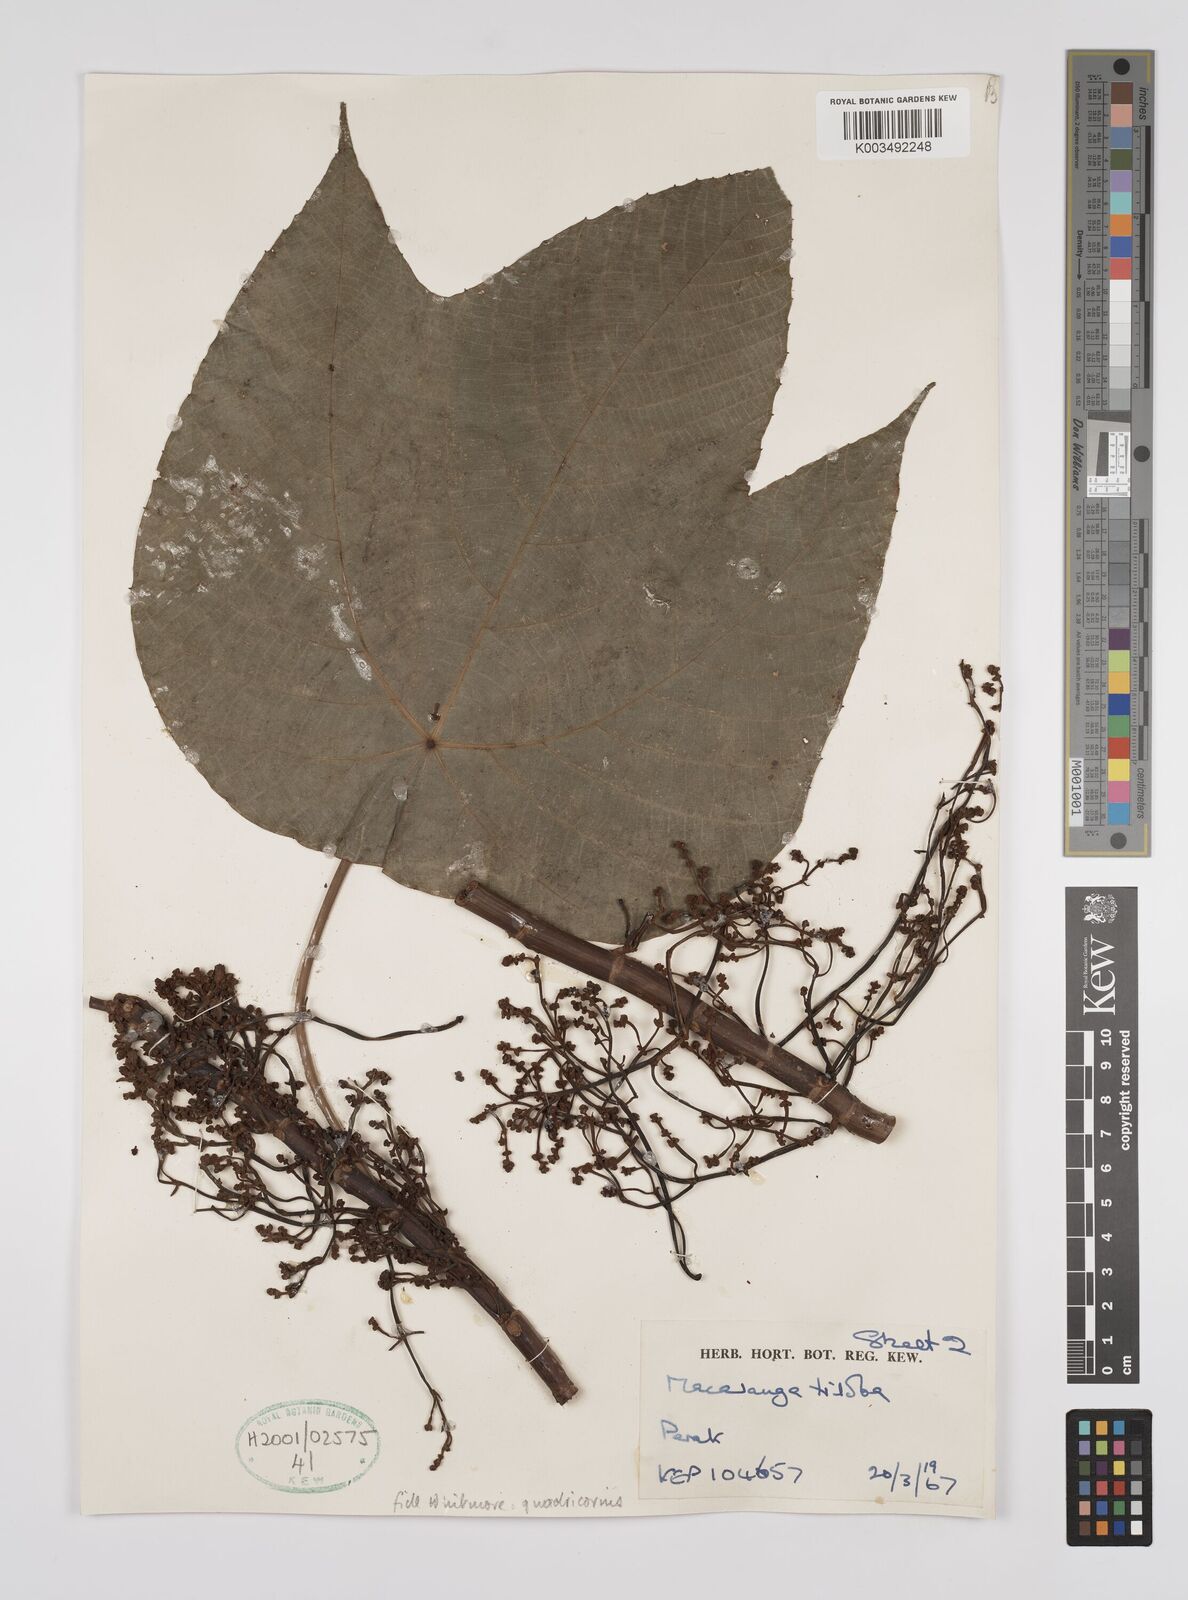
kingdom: Plantae
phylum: Tracheophyta
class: Magnoliopsida
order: Malpighiales
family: Euphorbiaceae
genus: Macaranga
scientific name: Macaranga triloba
